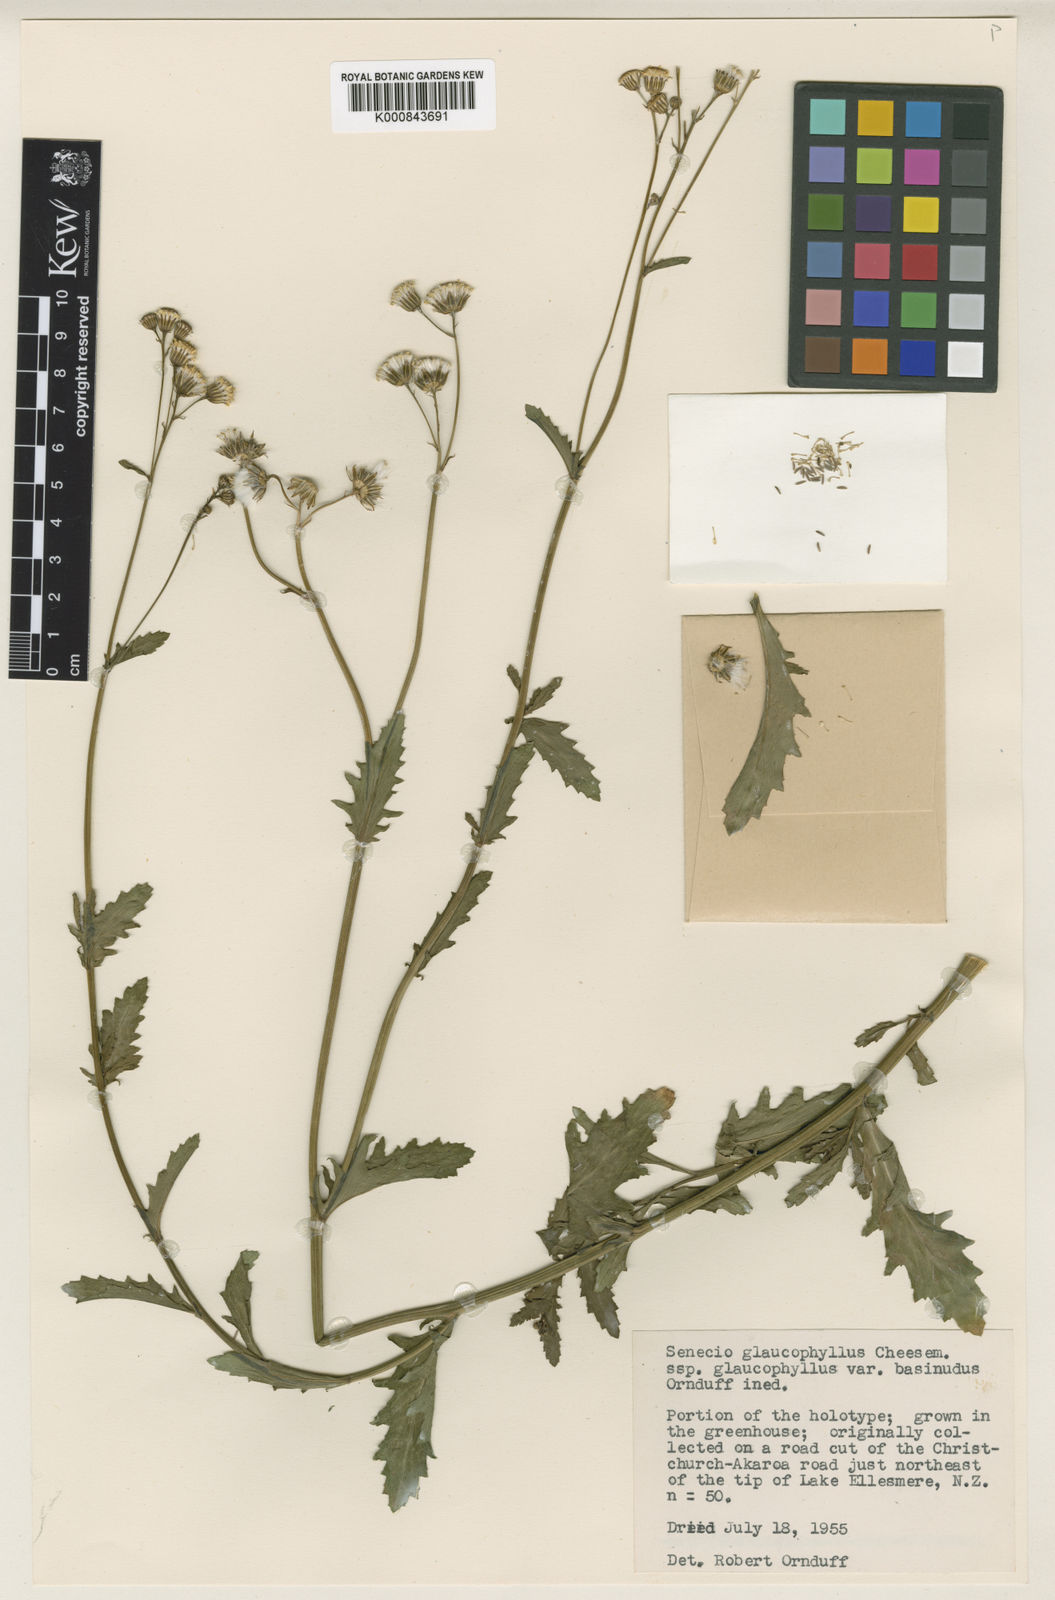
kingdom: Plantae
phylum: Tracheophyta
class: Magnoliopsida
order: Asterales
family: Asteraceae
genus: Senecio
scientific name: Senecio matatini
